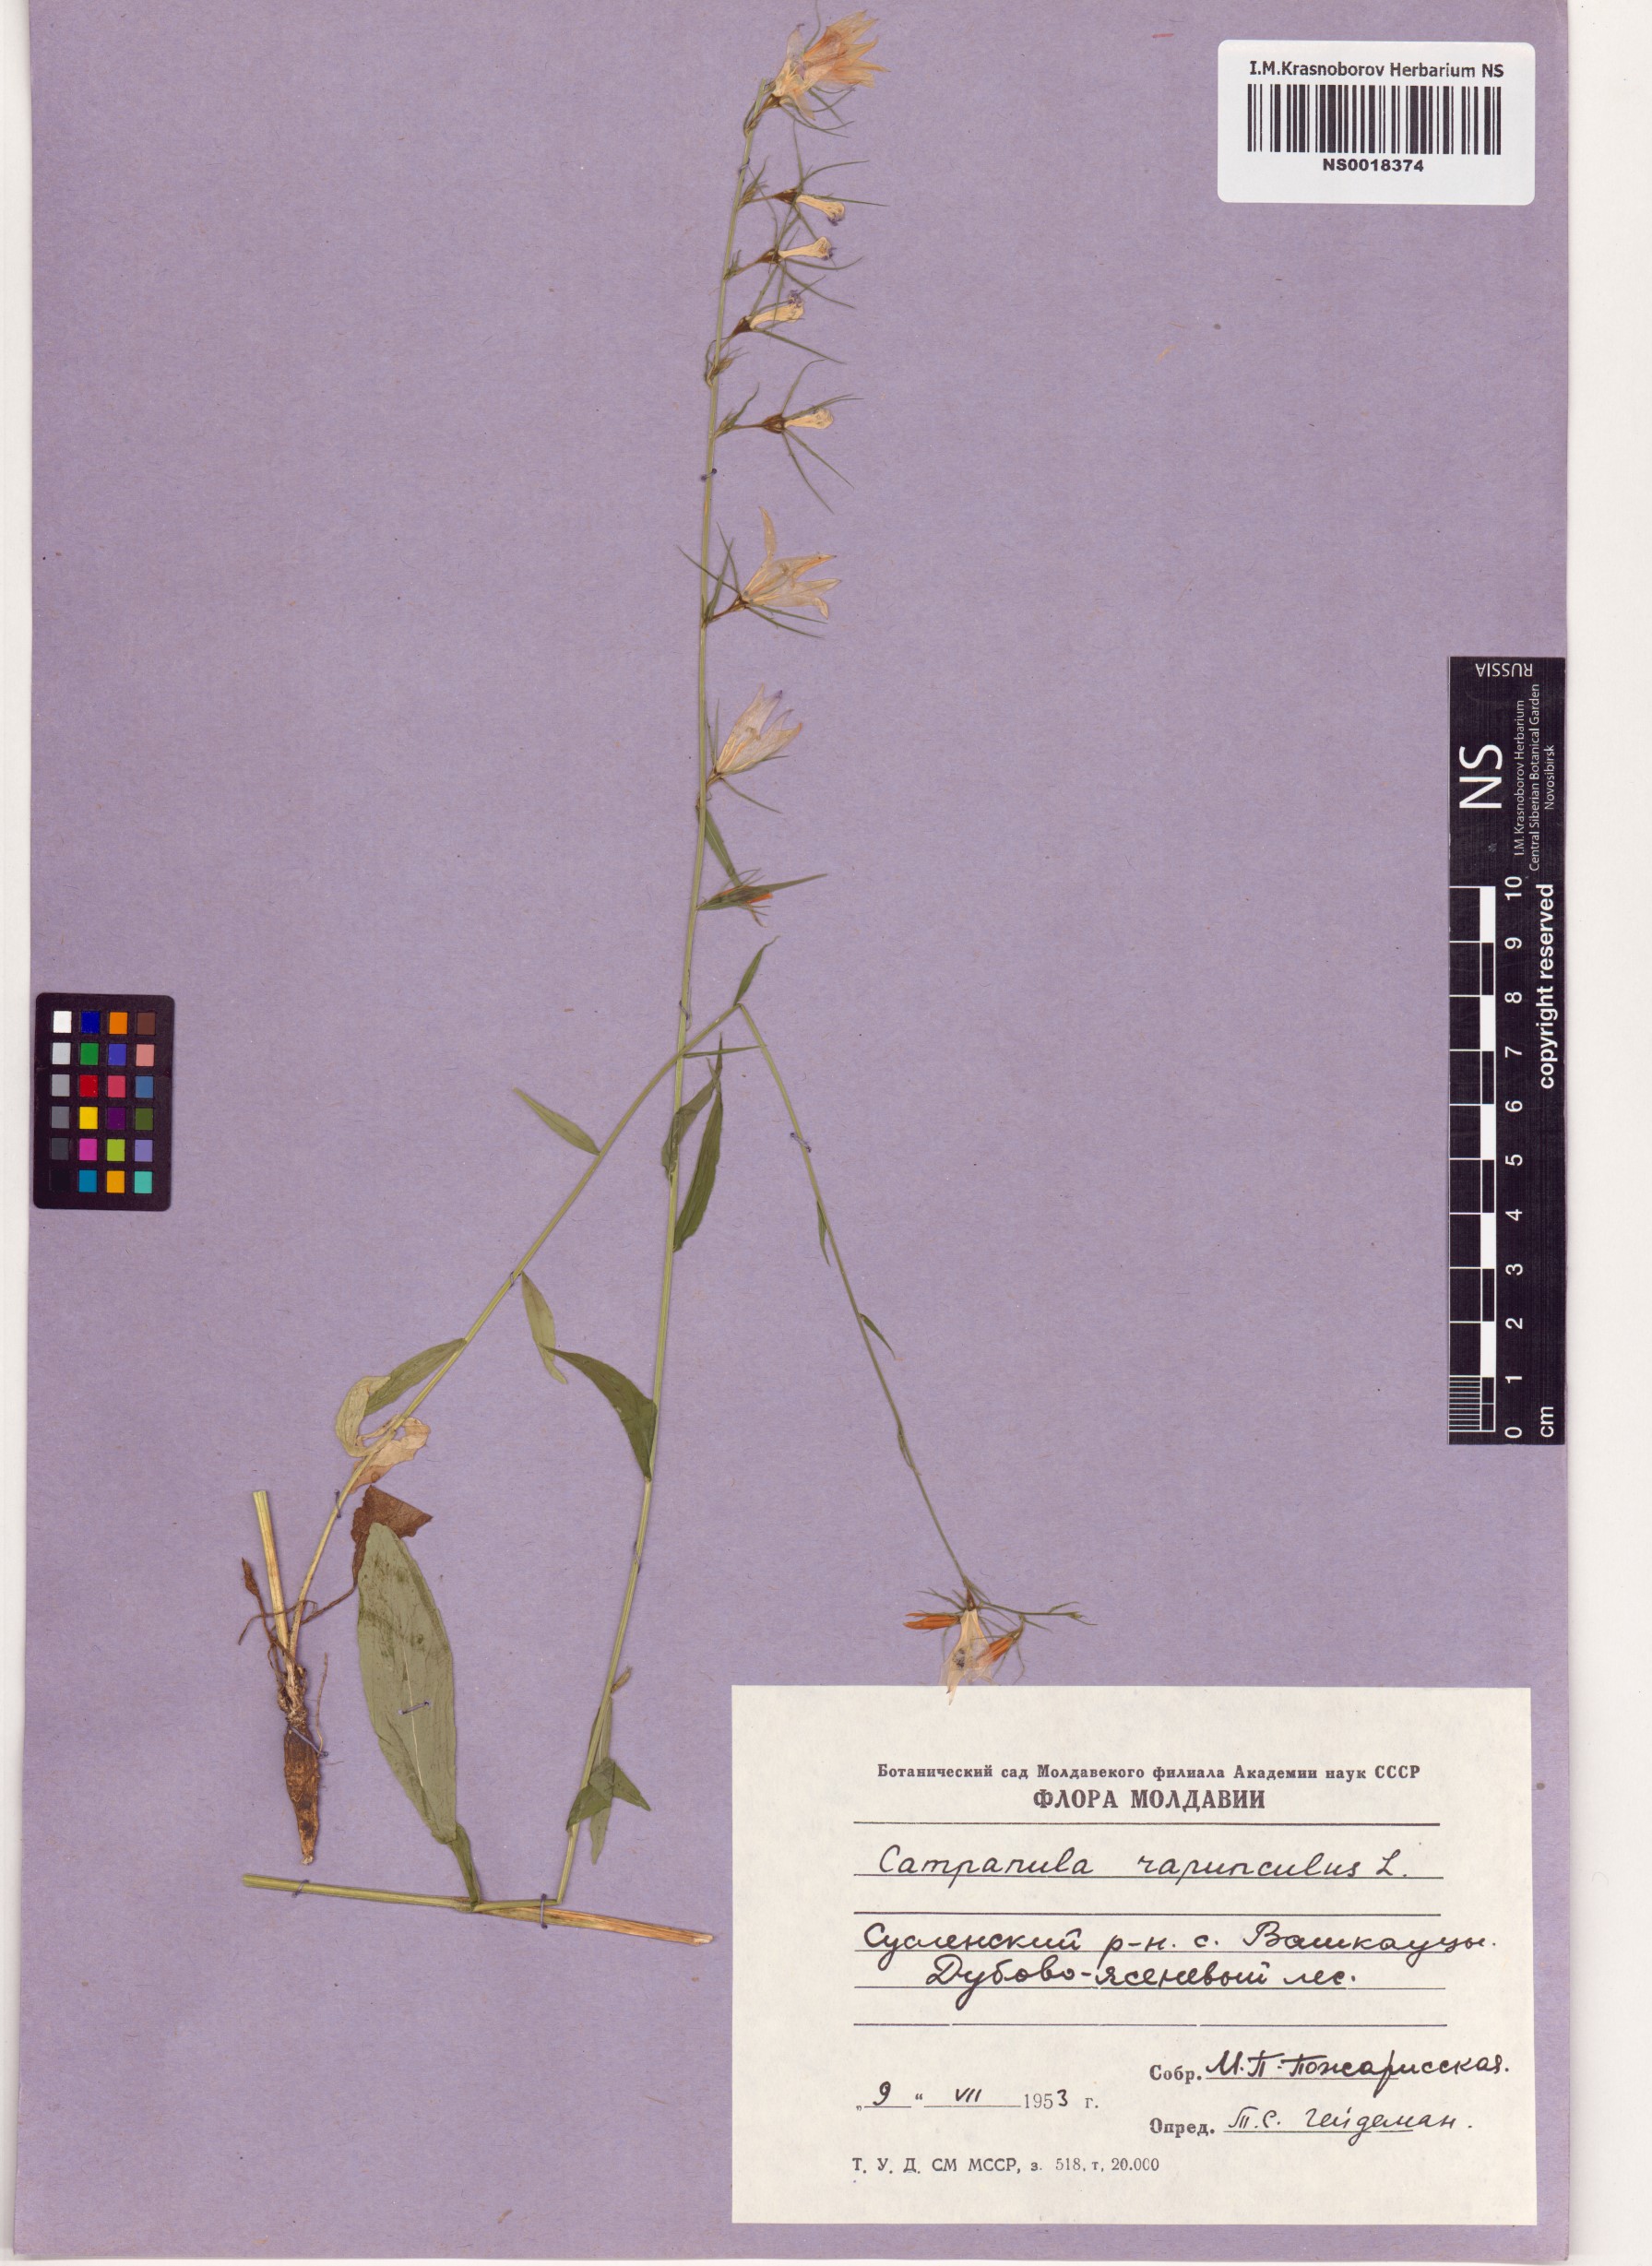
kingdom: Plantae
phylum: Tracheophyta
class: Magnoliopsida
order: Asterales
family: Campanulaceae
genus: Campanula
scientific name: Campanula rapunculus
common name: Rampion bellflower
